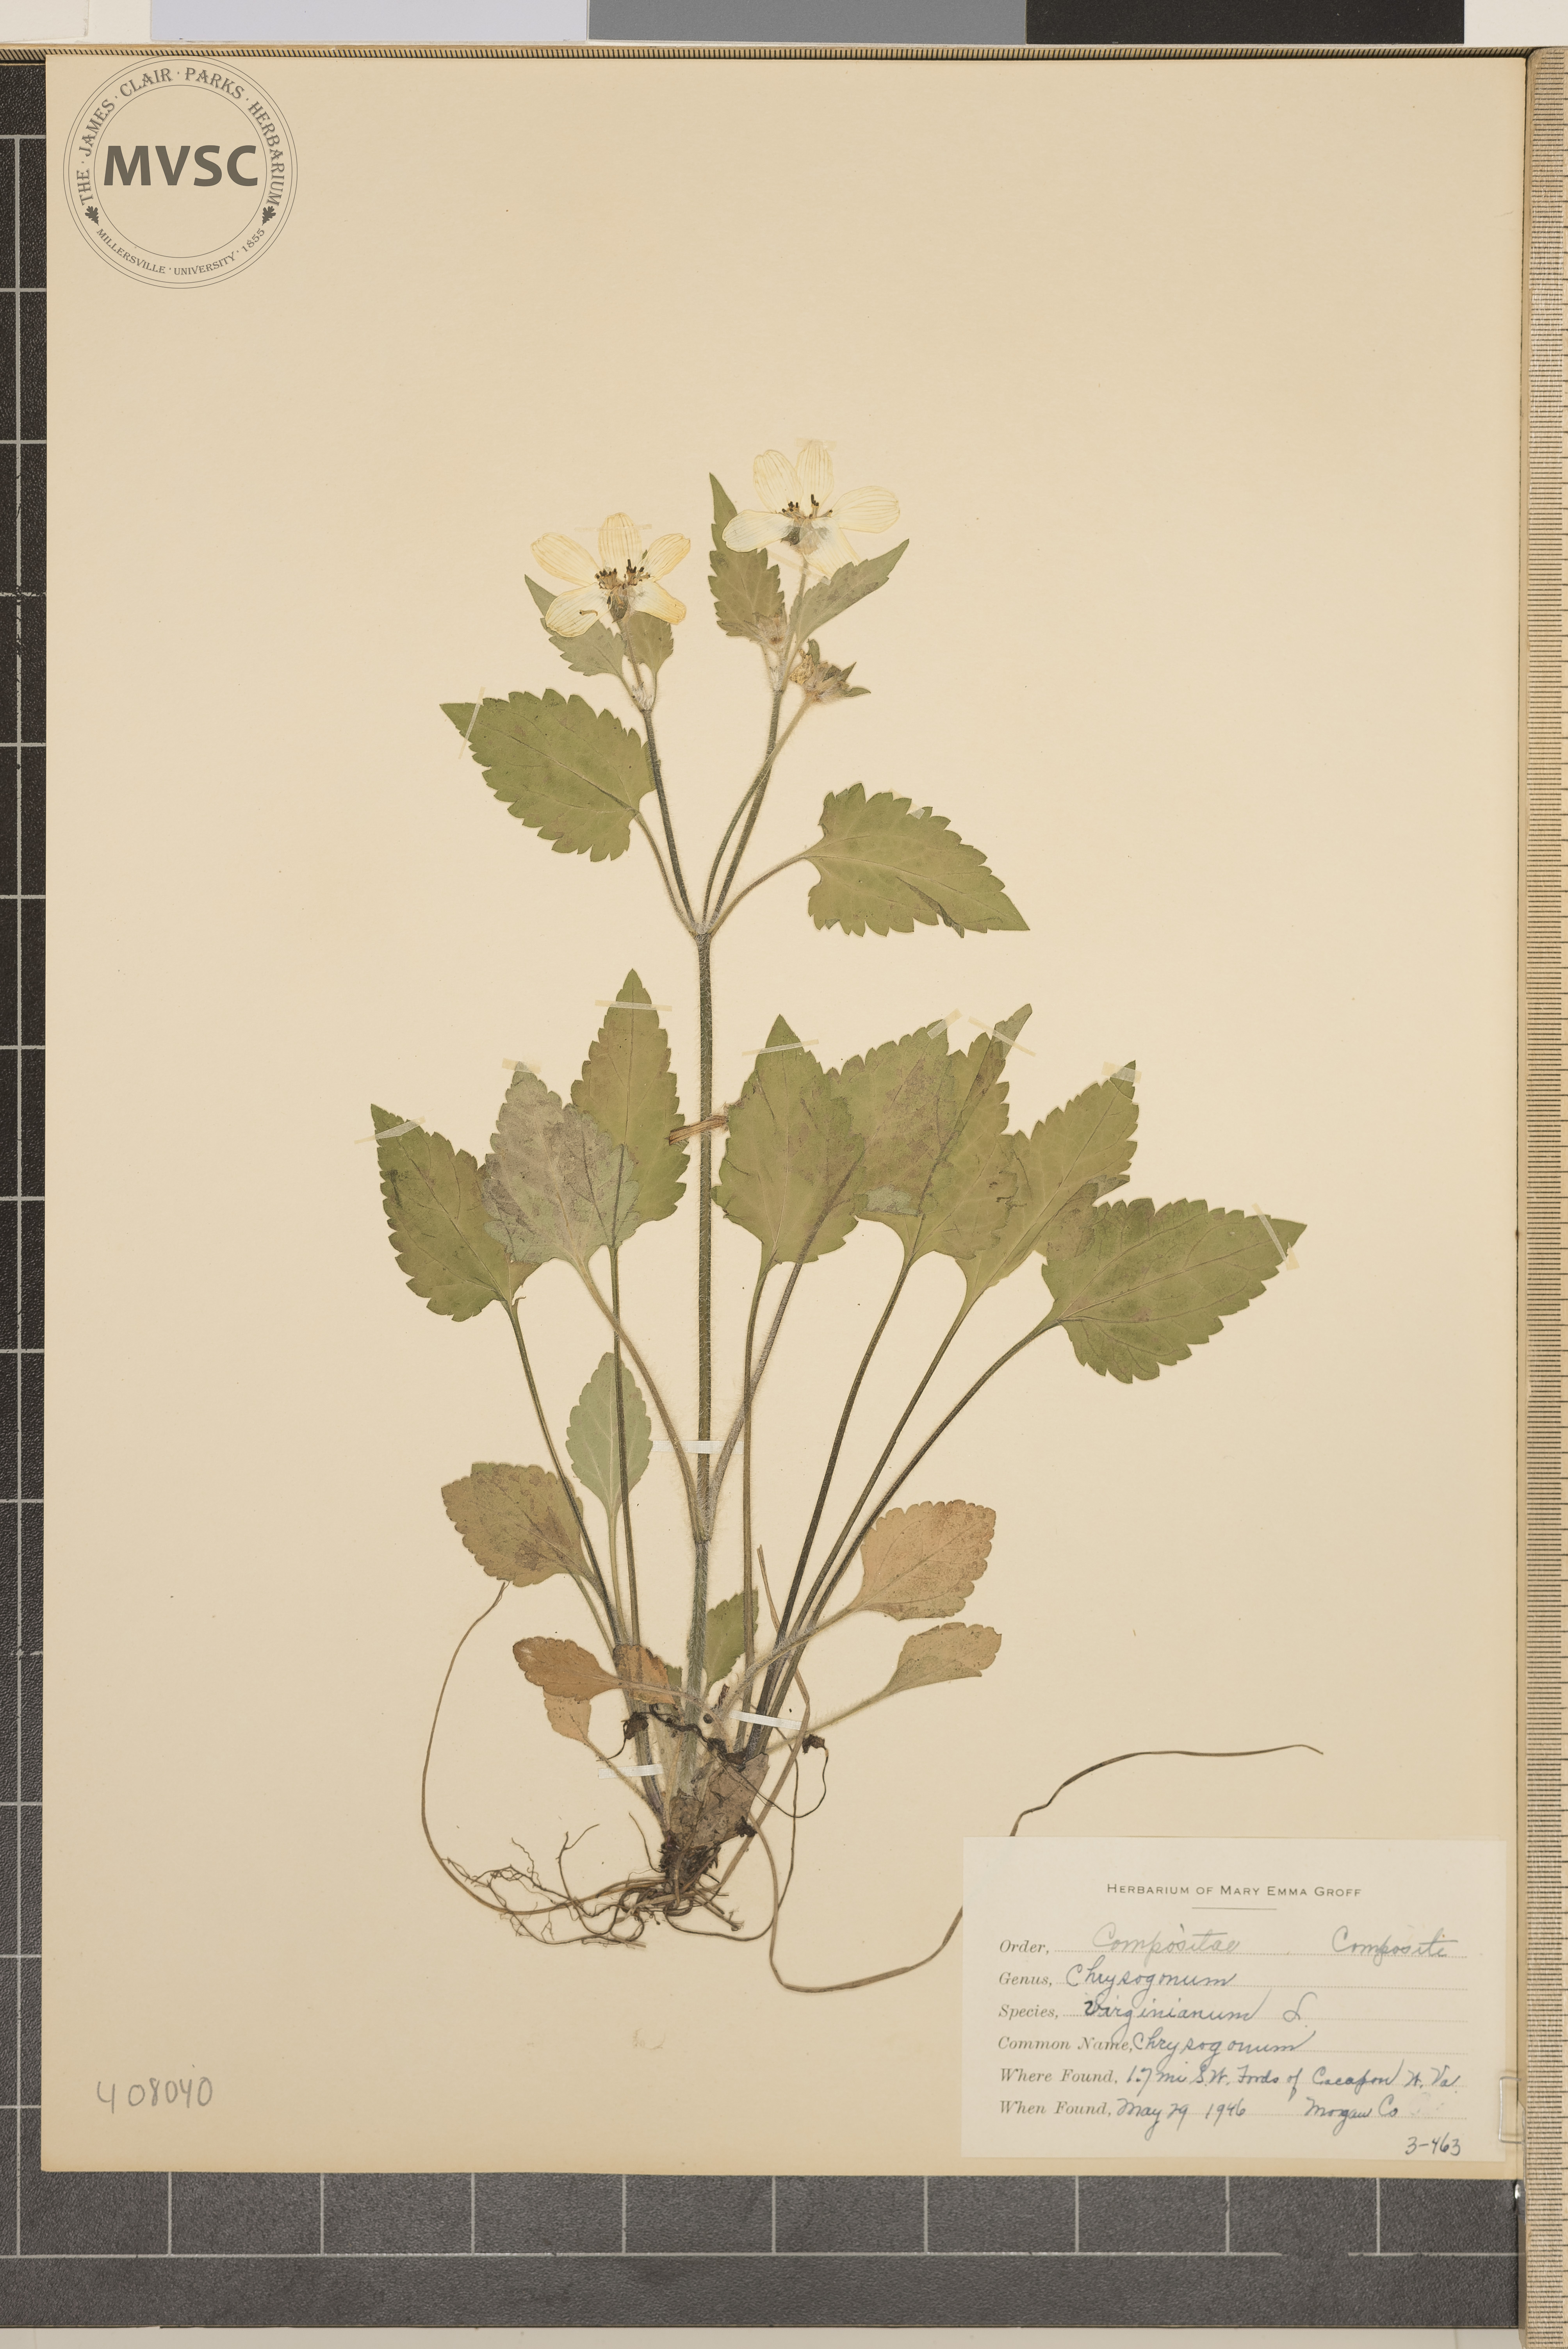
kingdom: Plantae
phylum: Tracheophyta
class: Magnoliopsida
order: Asterales
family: Asteraceae
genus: Chrysogonum
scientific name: Chrysogonum virginianum
